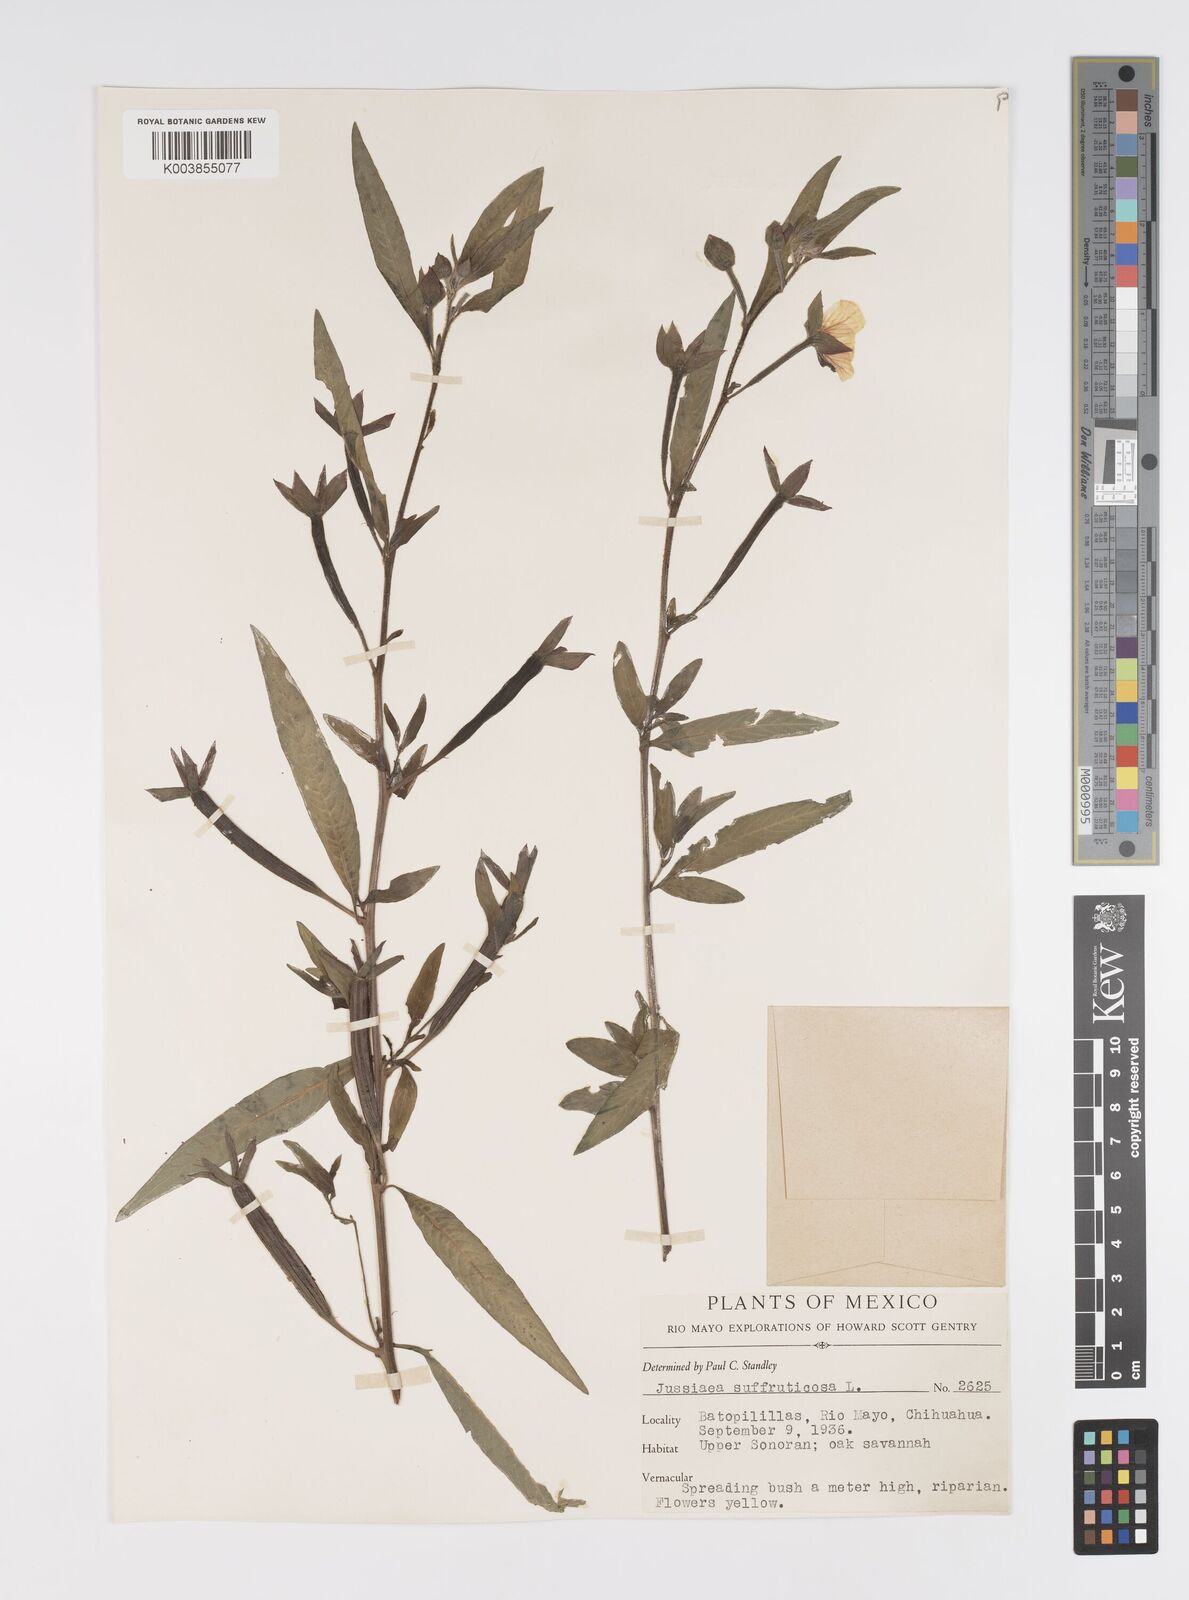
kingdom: Plantae
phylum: Tracheophyta
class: Magnoliopsida
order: Myrtales
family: Onagraceae
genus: Ludwigia
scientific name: Ludwigia octovalvis
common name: Water-primrose
